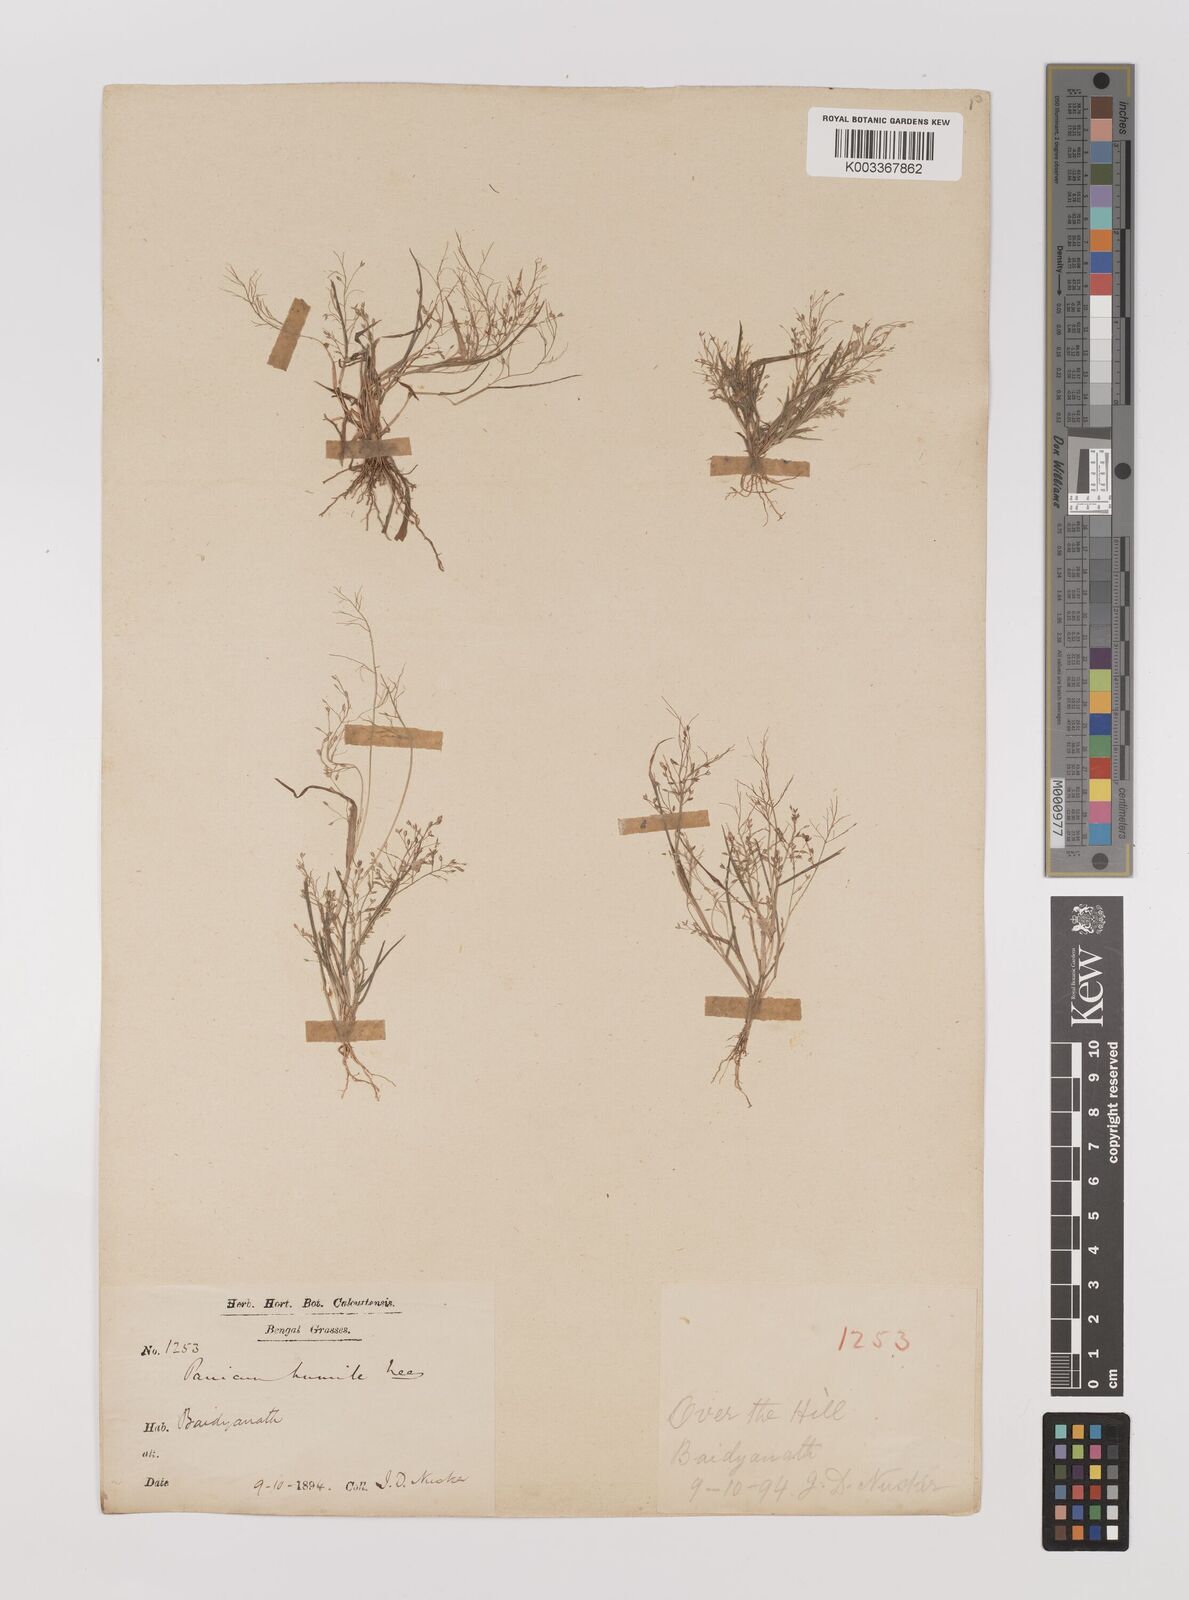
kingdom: Plantae
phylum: Tracheophyta
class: Liliopsida
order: Poales
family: Poaceae
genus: Panicum
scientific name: Panicum humile
